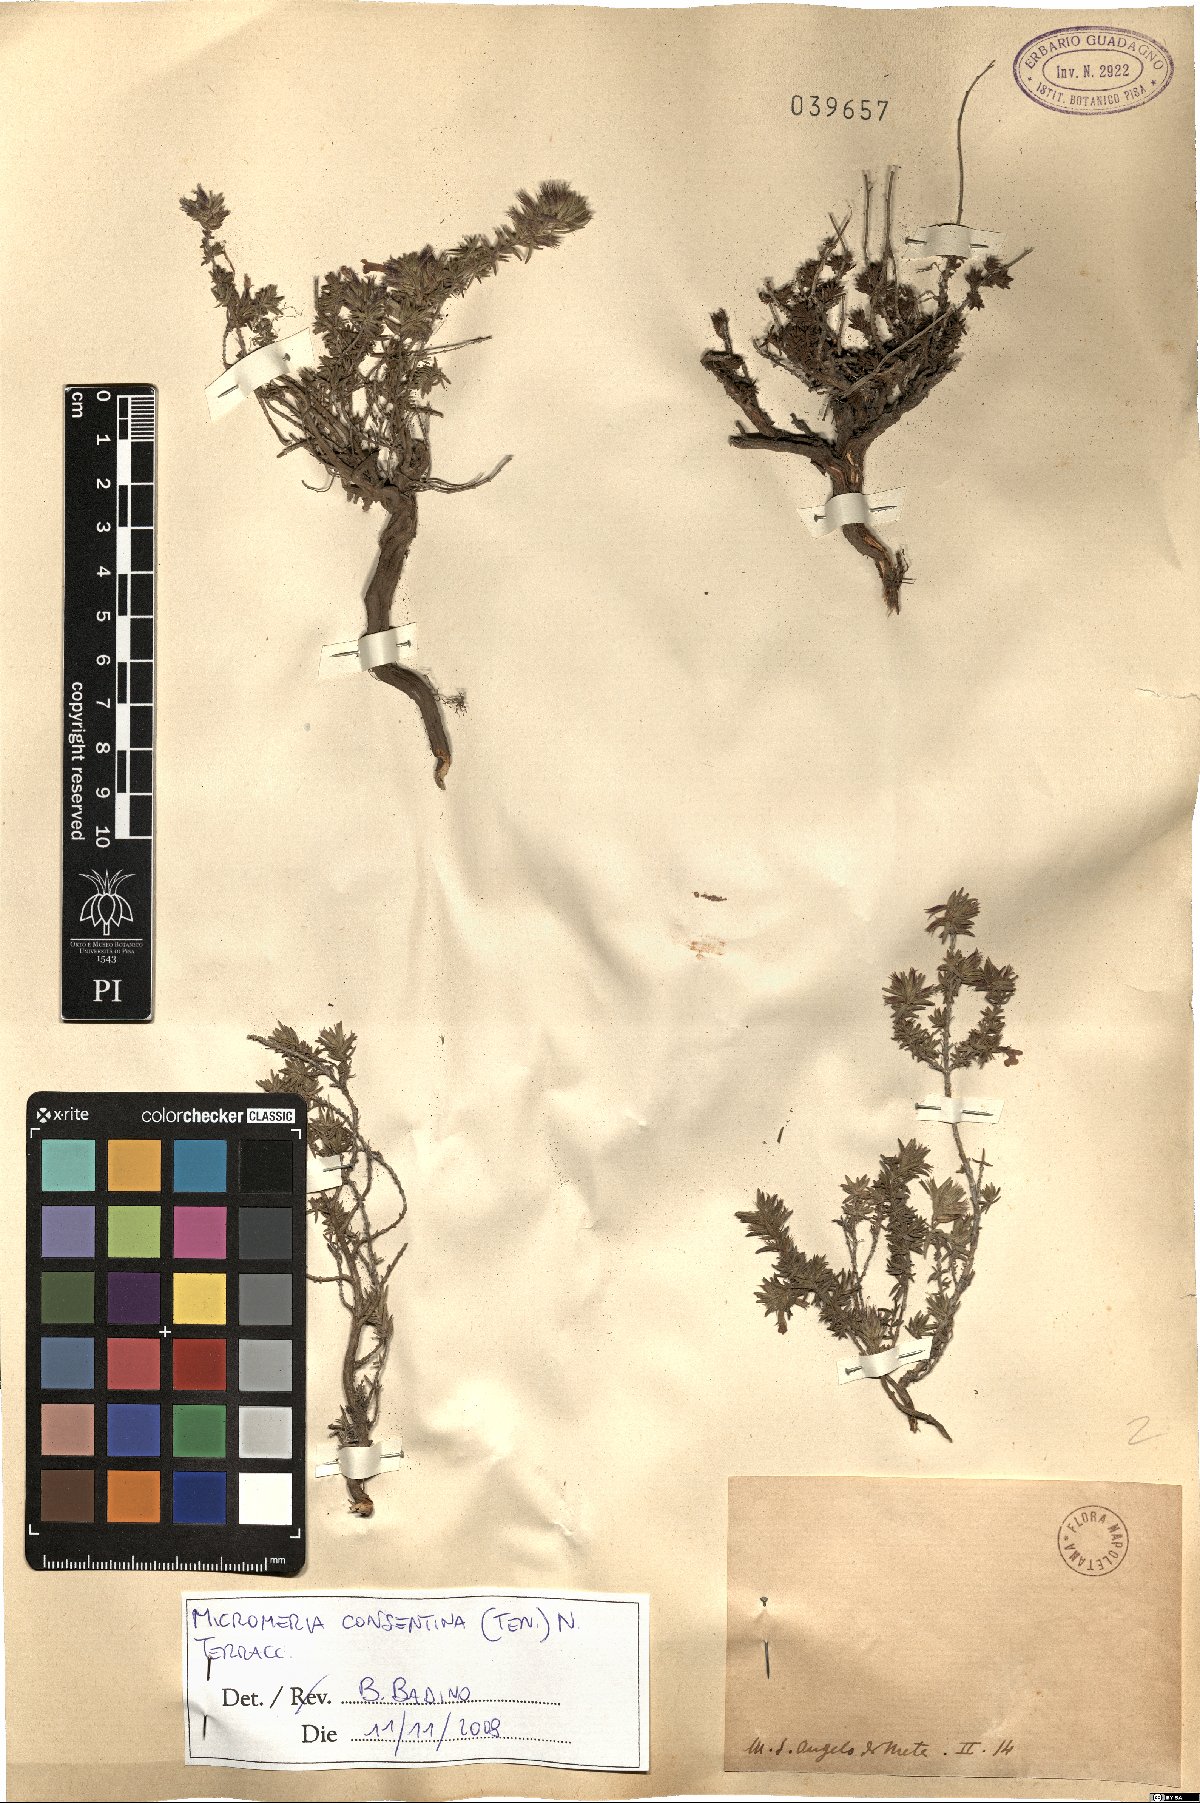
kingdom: Plantae
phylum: Tracheophyta
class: Magnoliopsida
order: Lamiales
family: Lamiaceae
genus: Micromeria
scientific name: Micromeria
